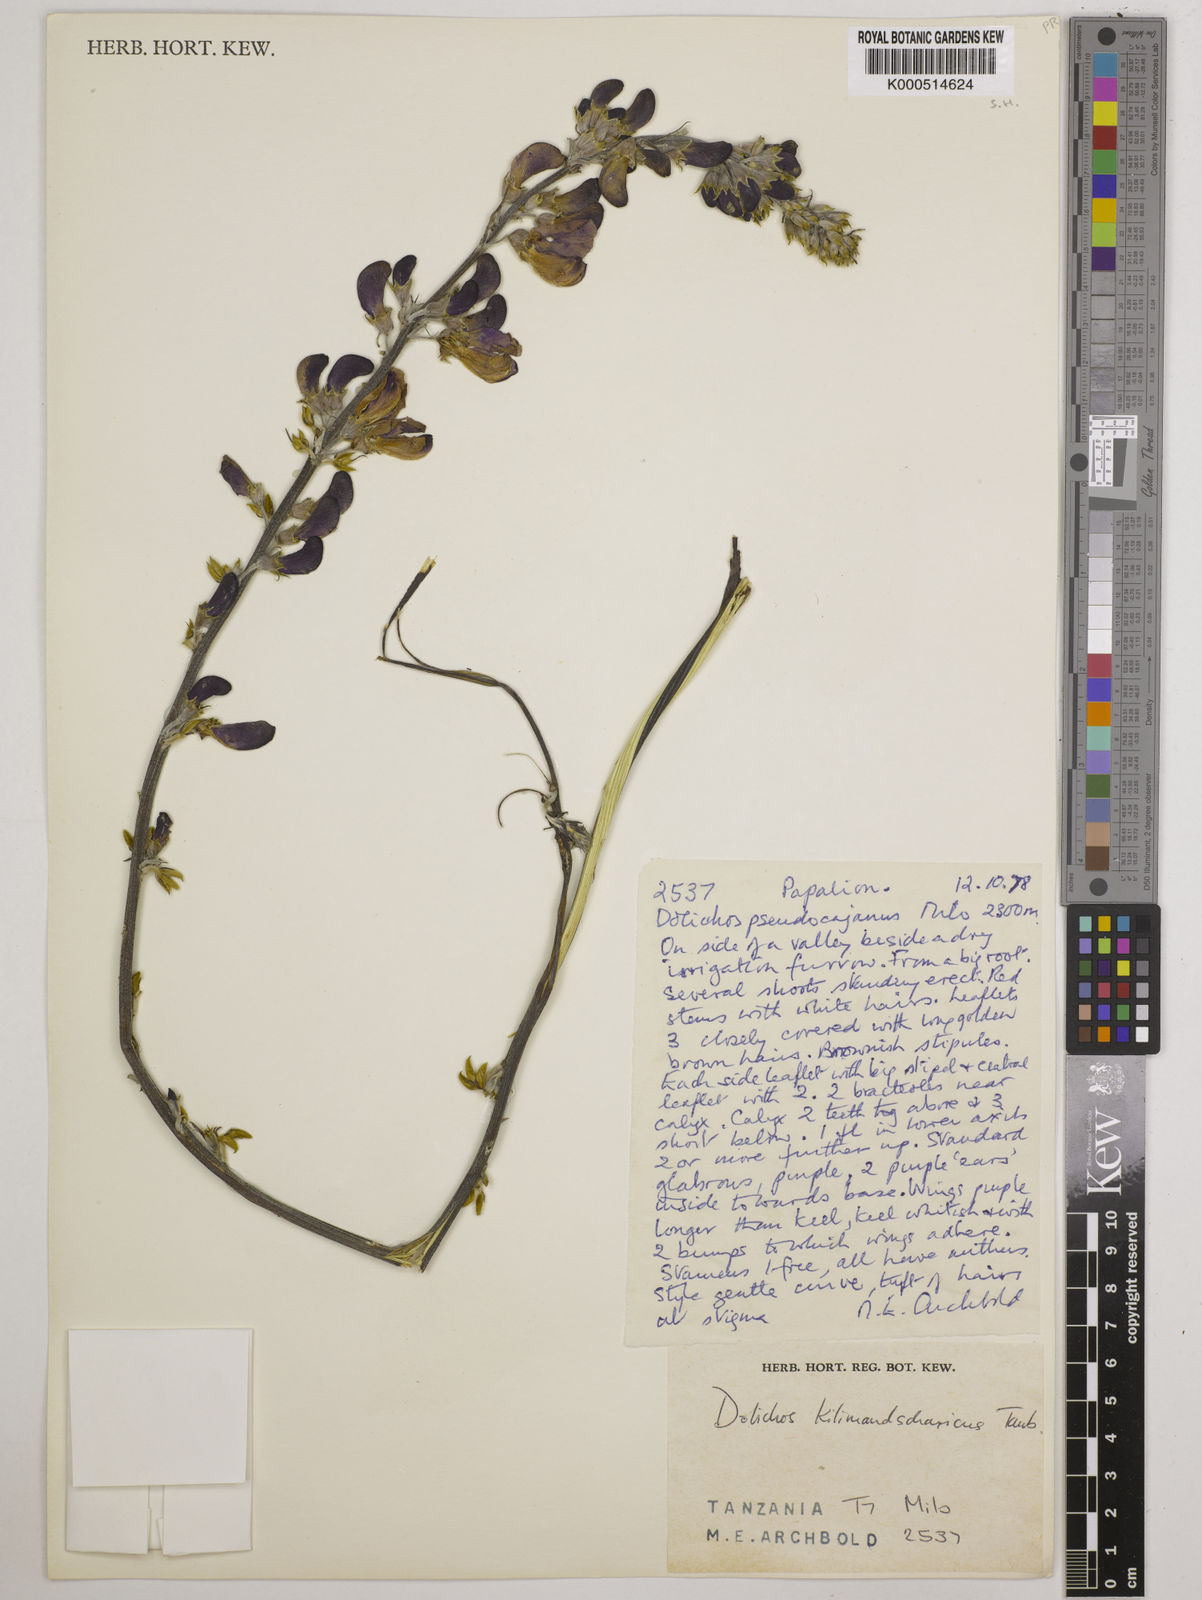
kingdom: Plantae
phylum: Tracheophyta
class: Magnoliopsida
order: Fabales
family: Fabaceae
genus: Dolichos
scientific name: Dolichos kilimandscharicus
